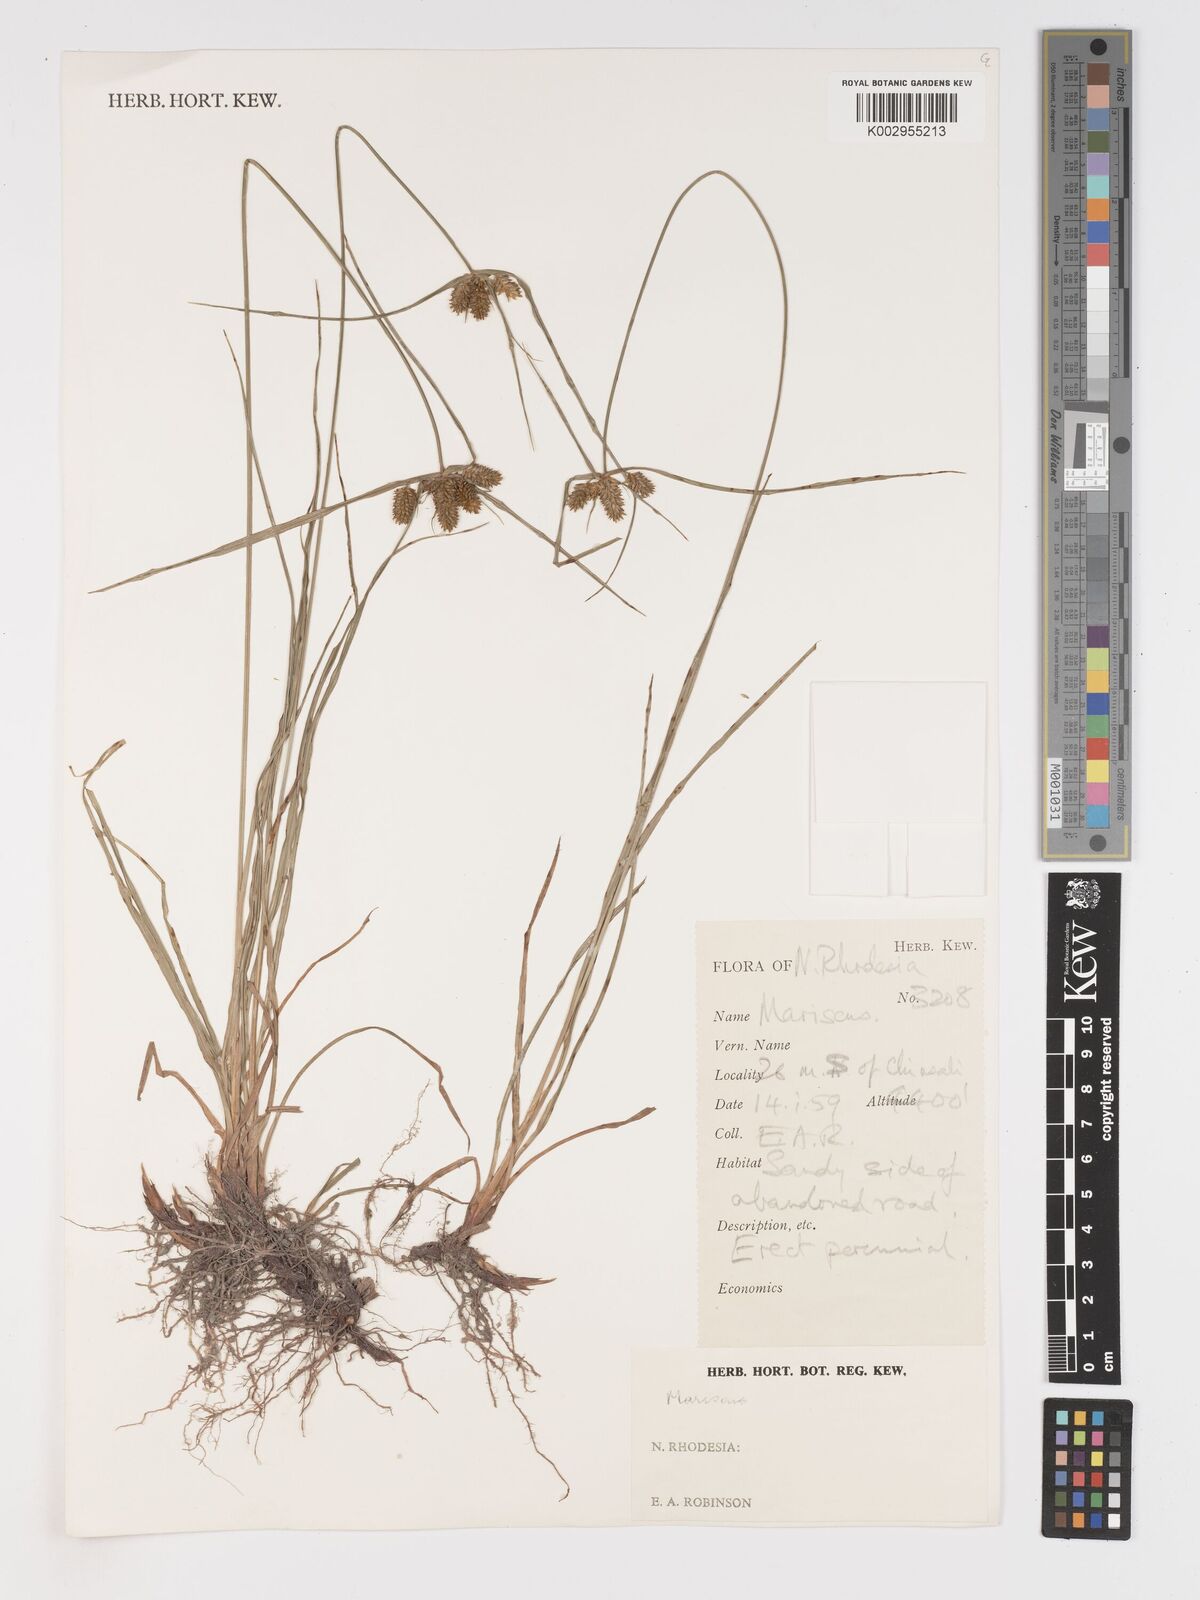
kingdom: Plantae
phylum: Tracheophyta
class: Liliopsida
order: Poales
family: Cyperaceae
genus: Cyperus
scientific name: Cyperus
